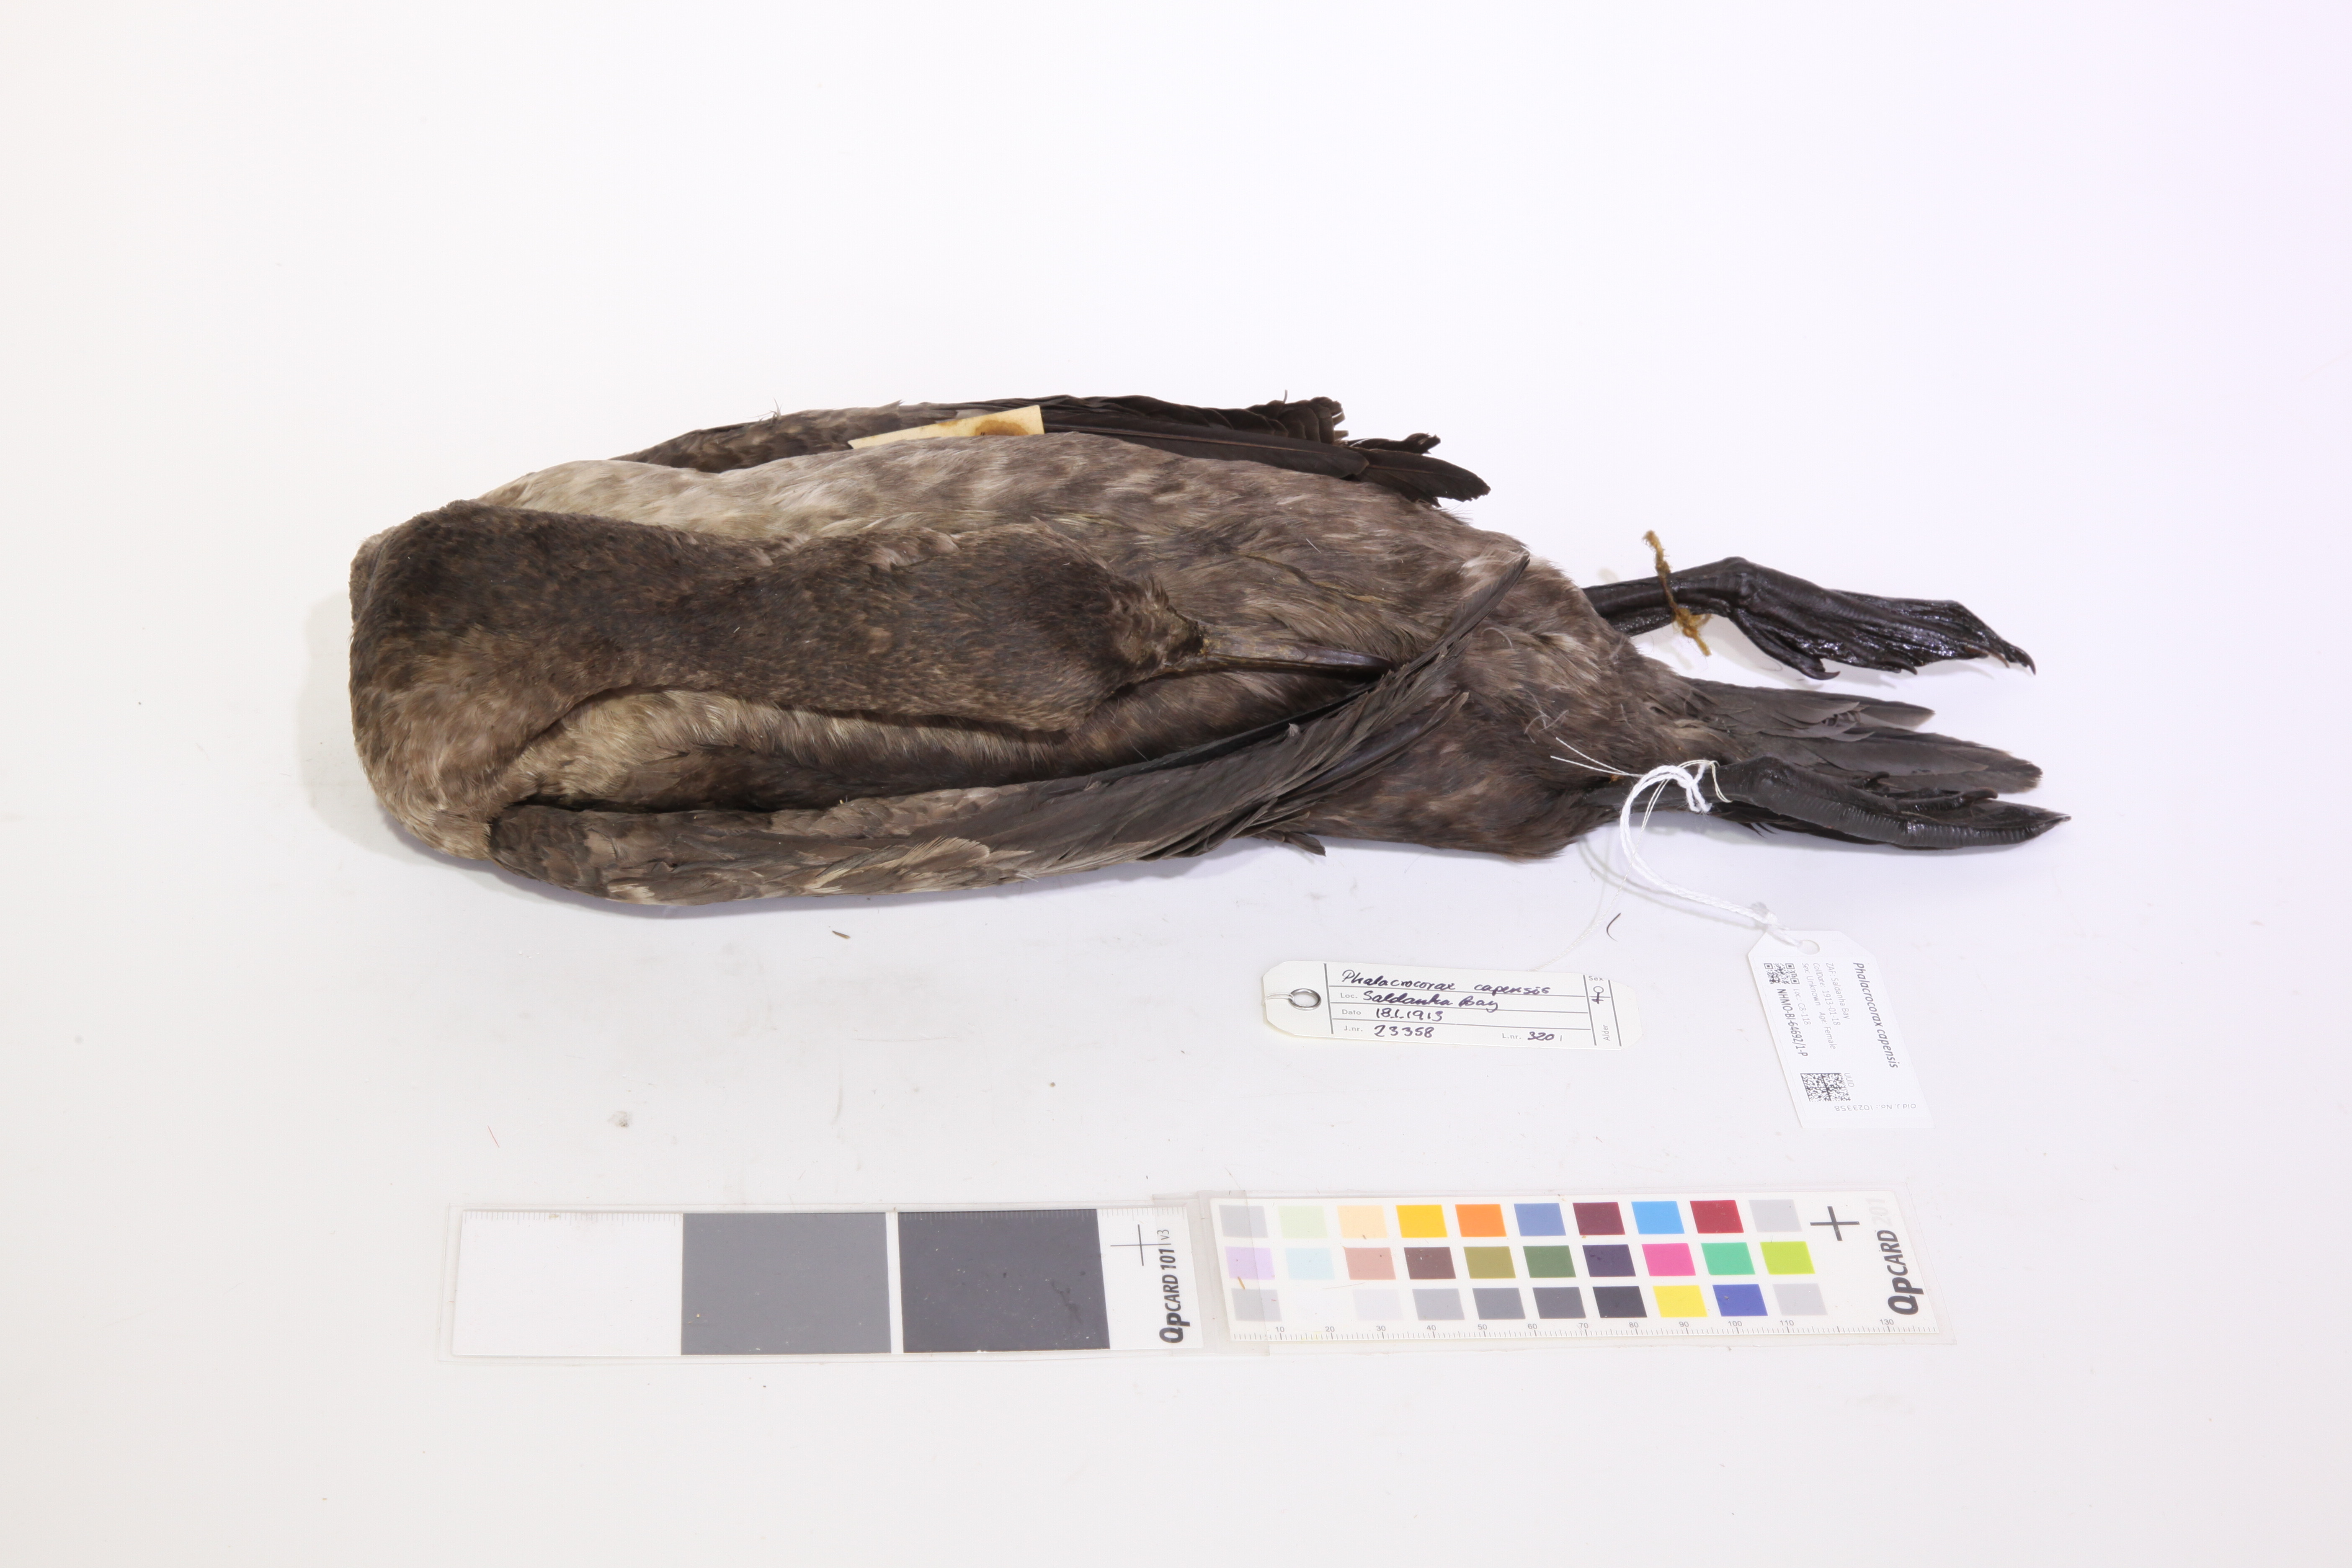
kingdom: Animalia
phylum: Chordata
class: Aves
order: Suliformes
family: Phalacrocoracidae
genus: Phalacrocorax
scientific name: Phalacrocorax capensis
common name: Cape cormorant
